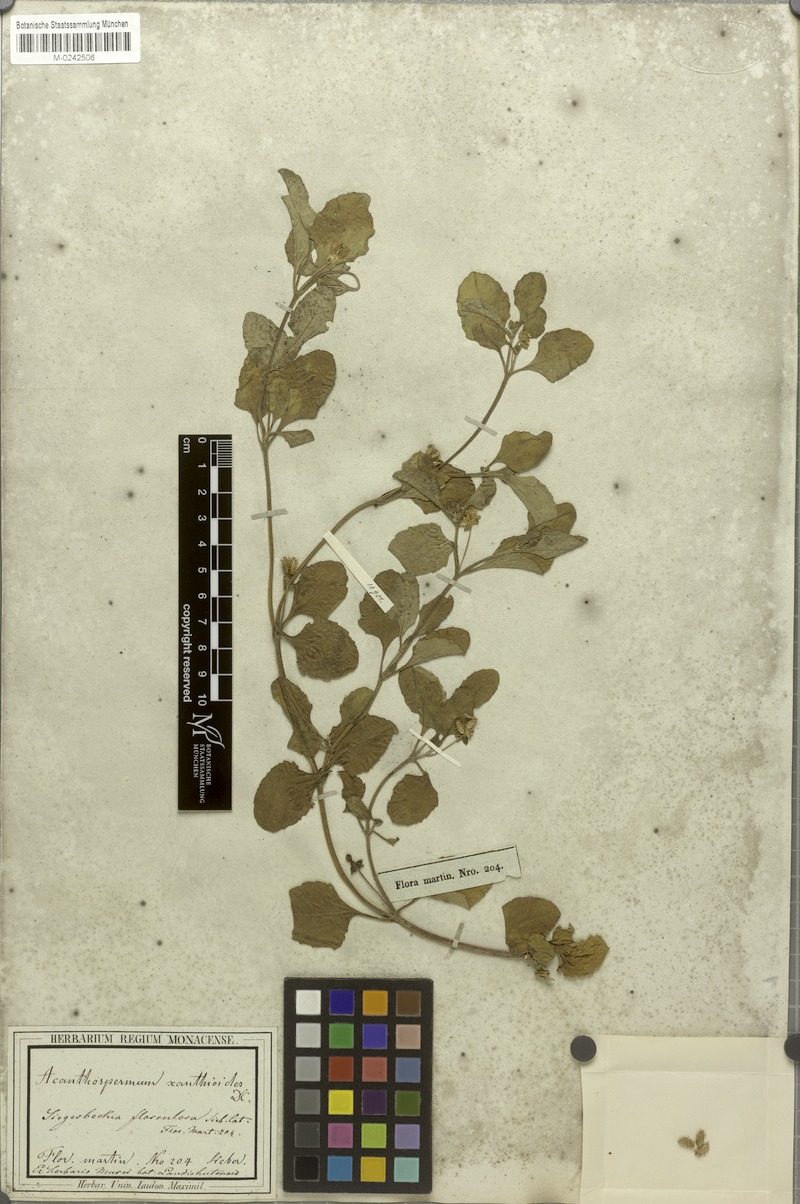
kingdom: Plantae
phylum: Tracheophyta
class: Magnoliopsida
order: Asterales
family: Asteraceae
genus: Acanthospermum
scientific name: Acanthospermum australe
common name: Paraguayan starbur
